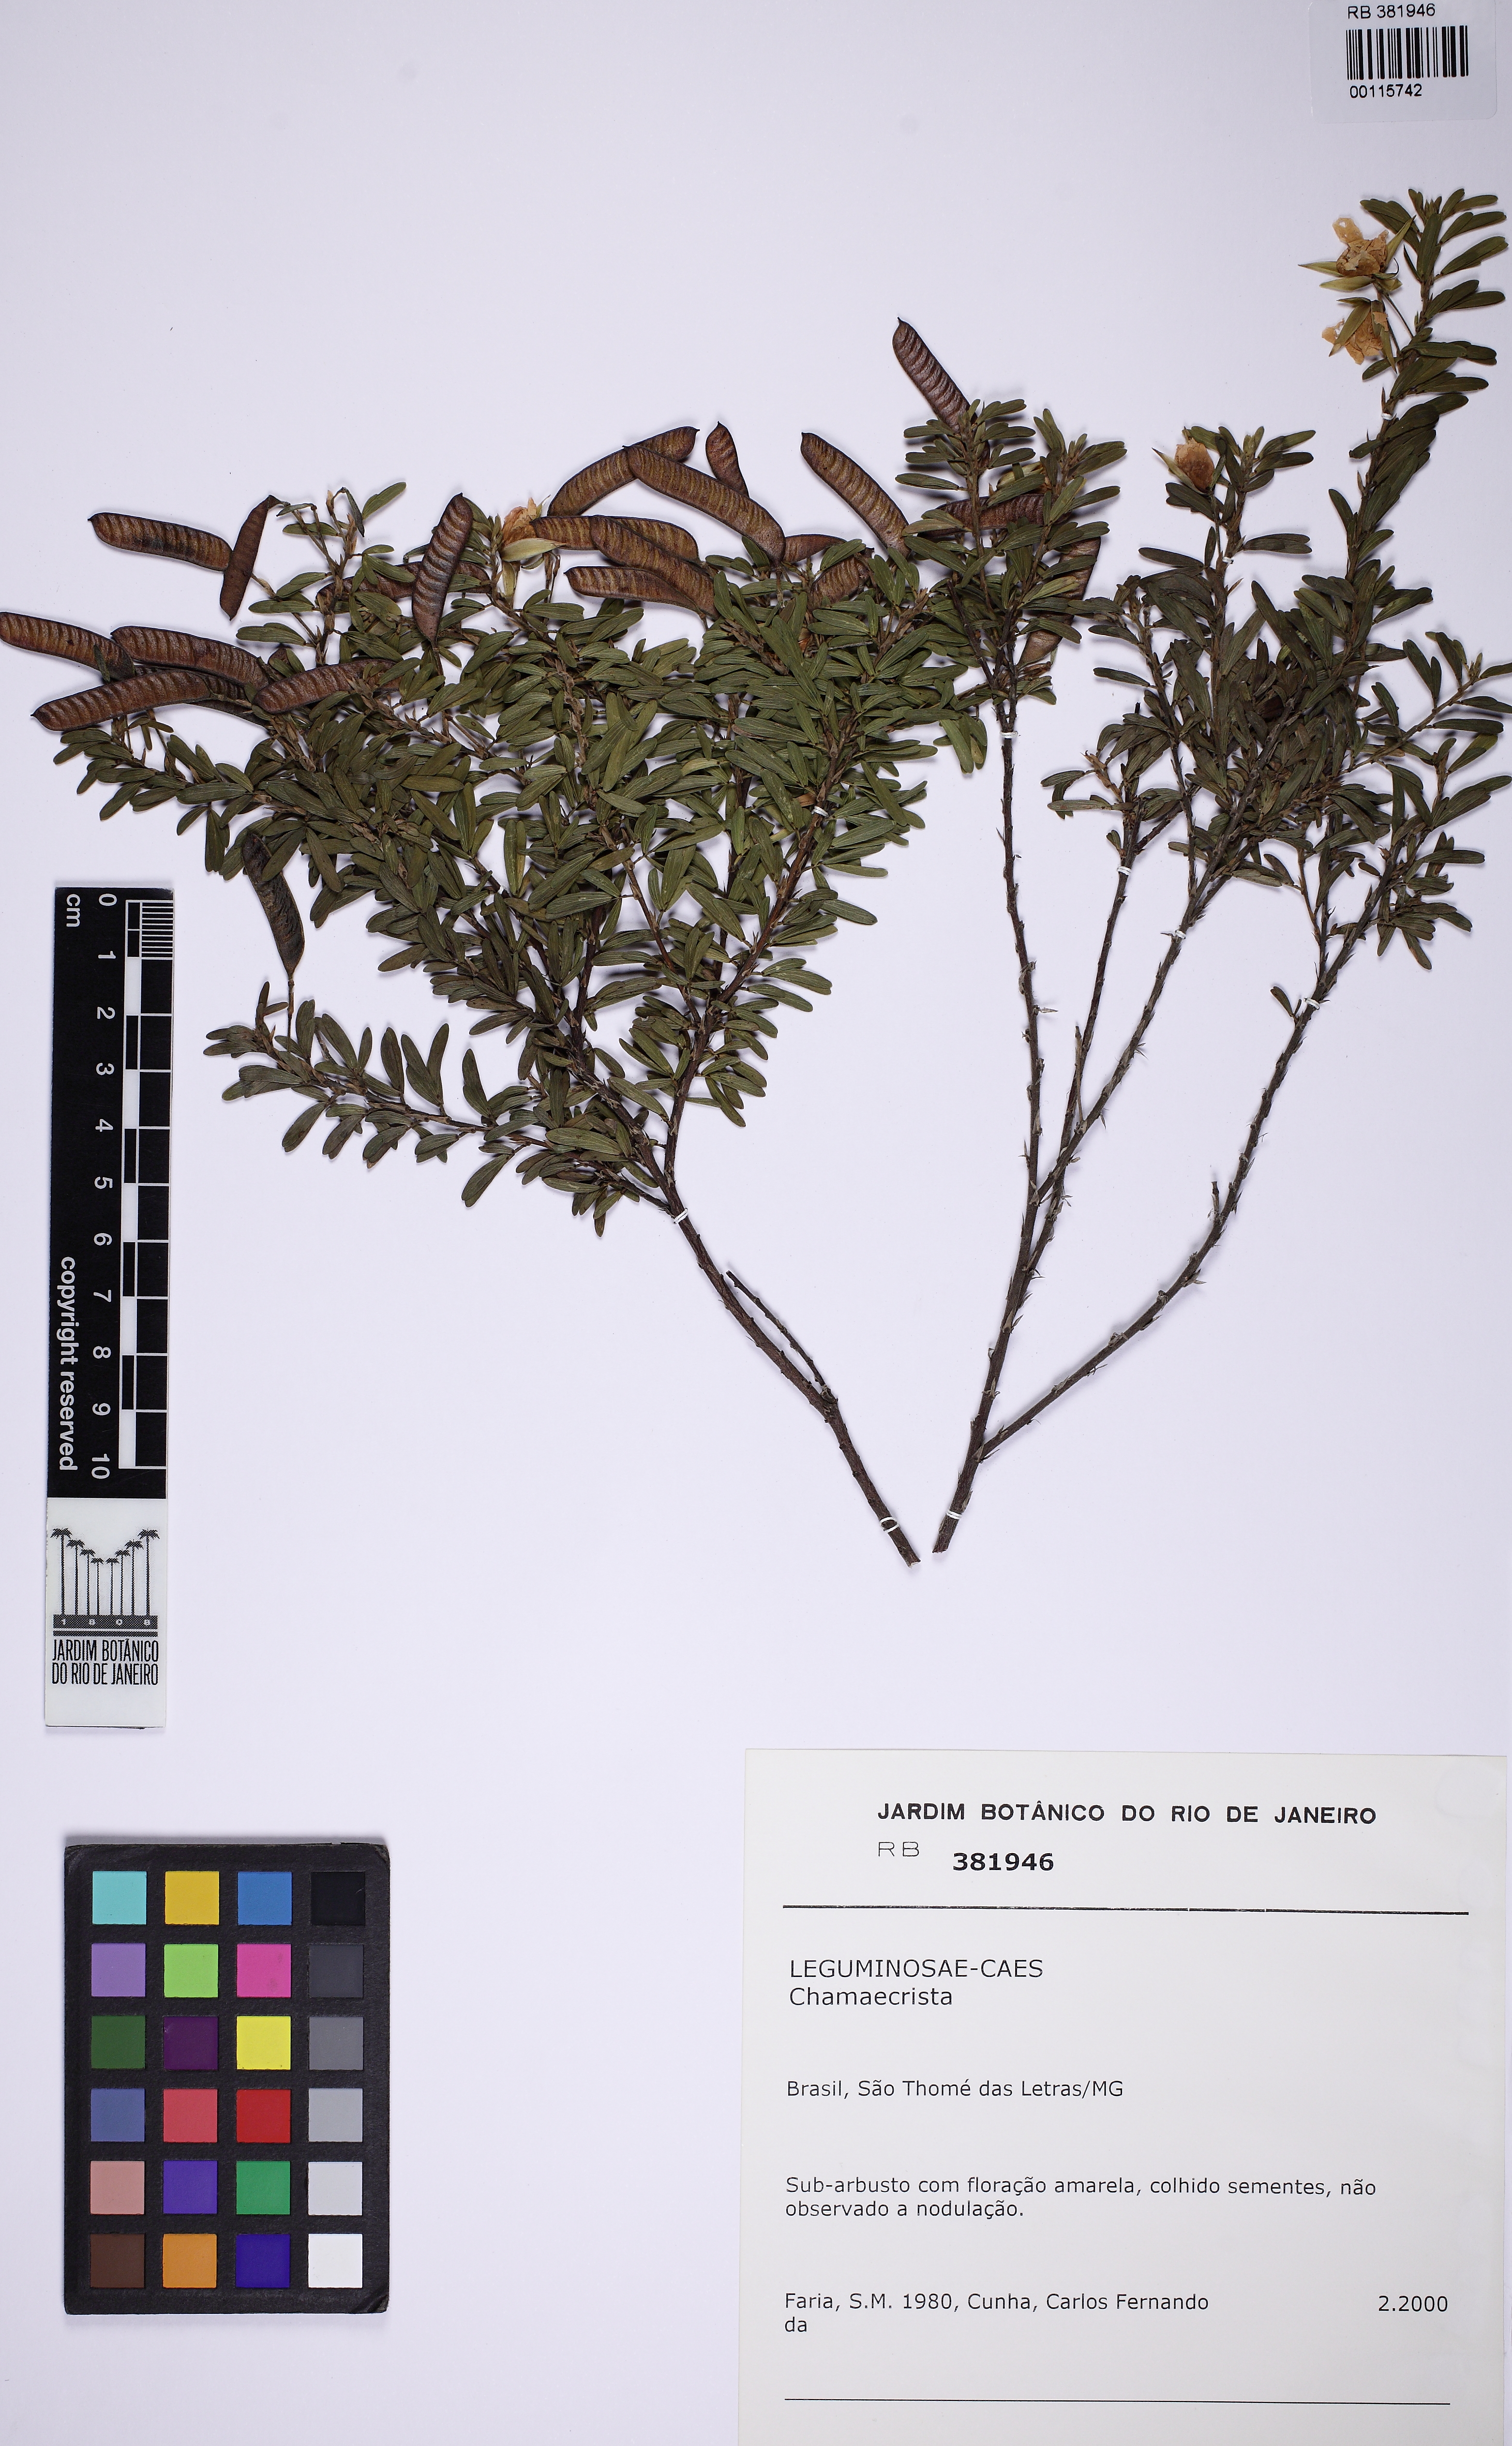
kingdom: Plantae
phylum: Tracheophyta
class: Magnoliopsida
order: Fabales
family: Fabaceae
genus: Chamaecrista
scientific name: Chamaecrista
